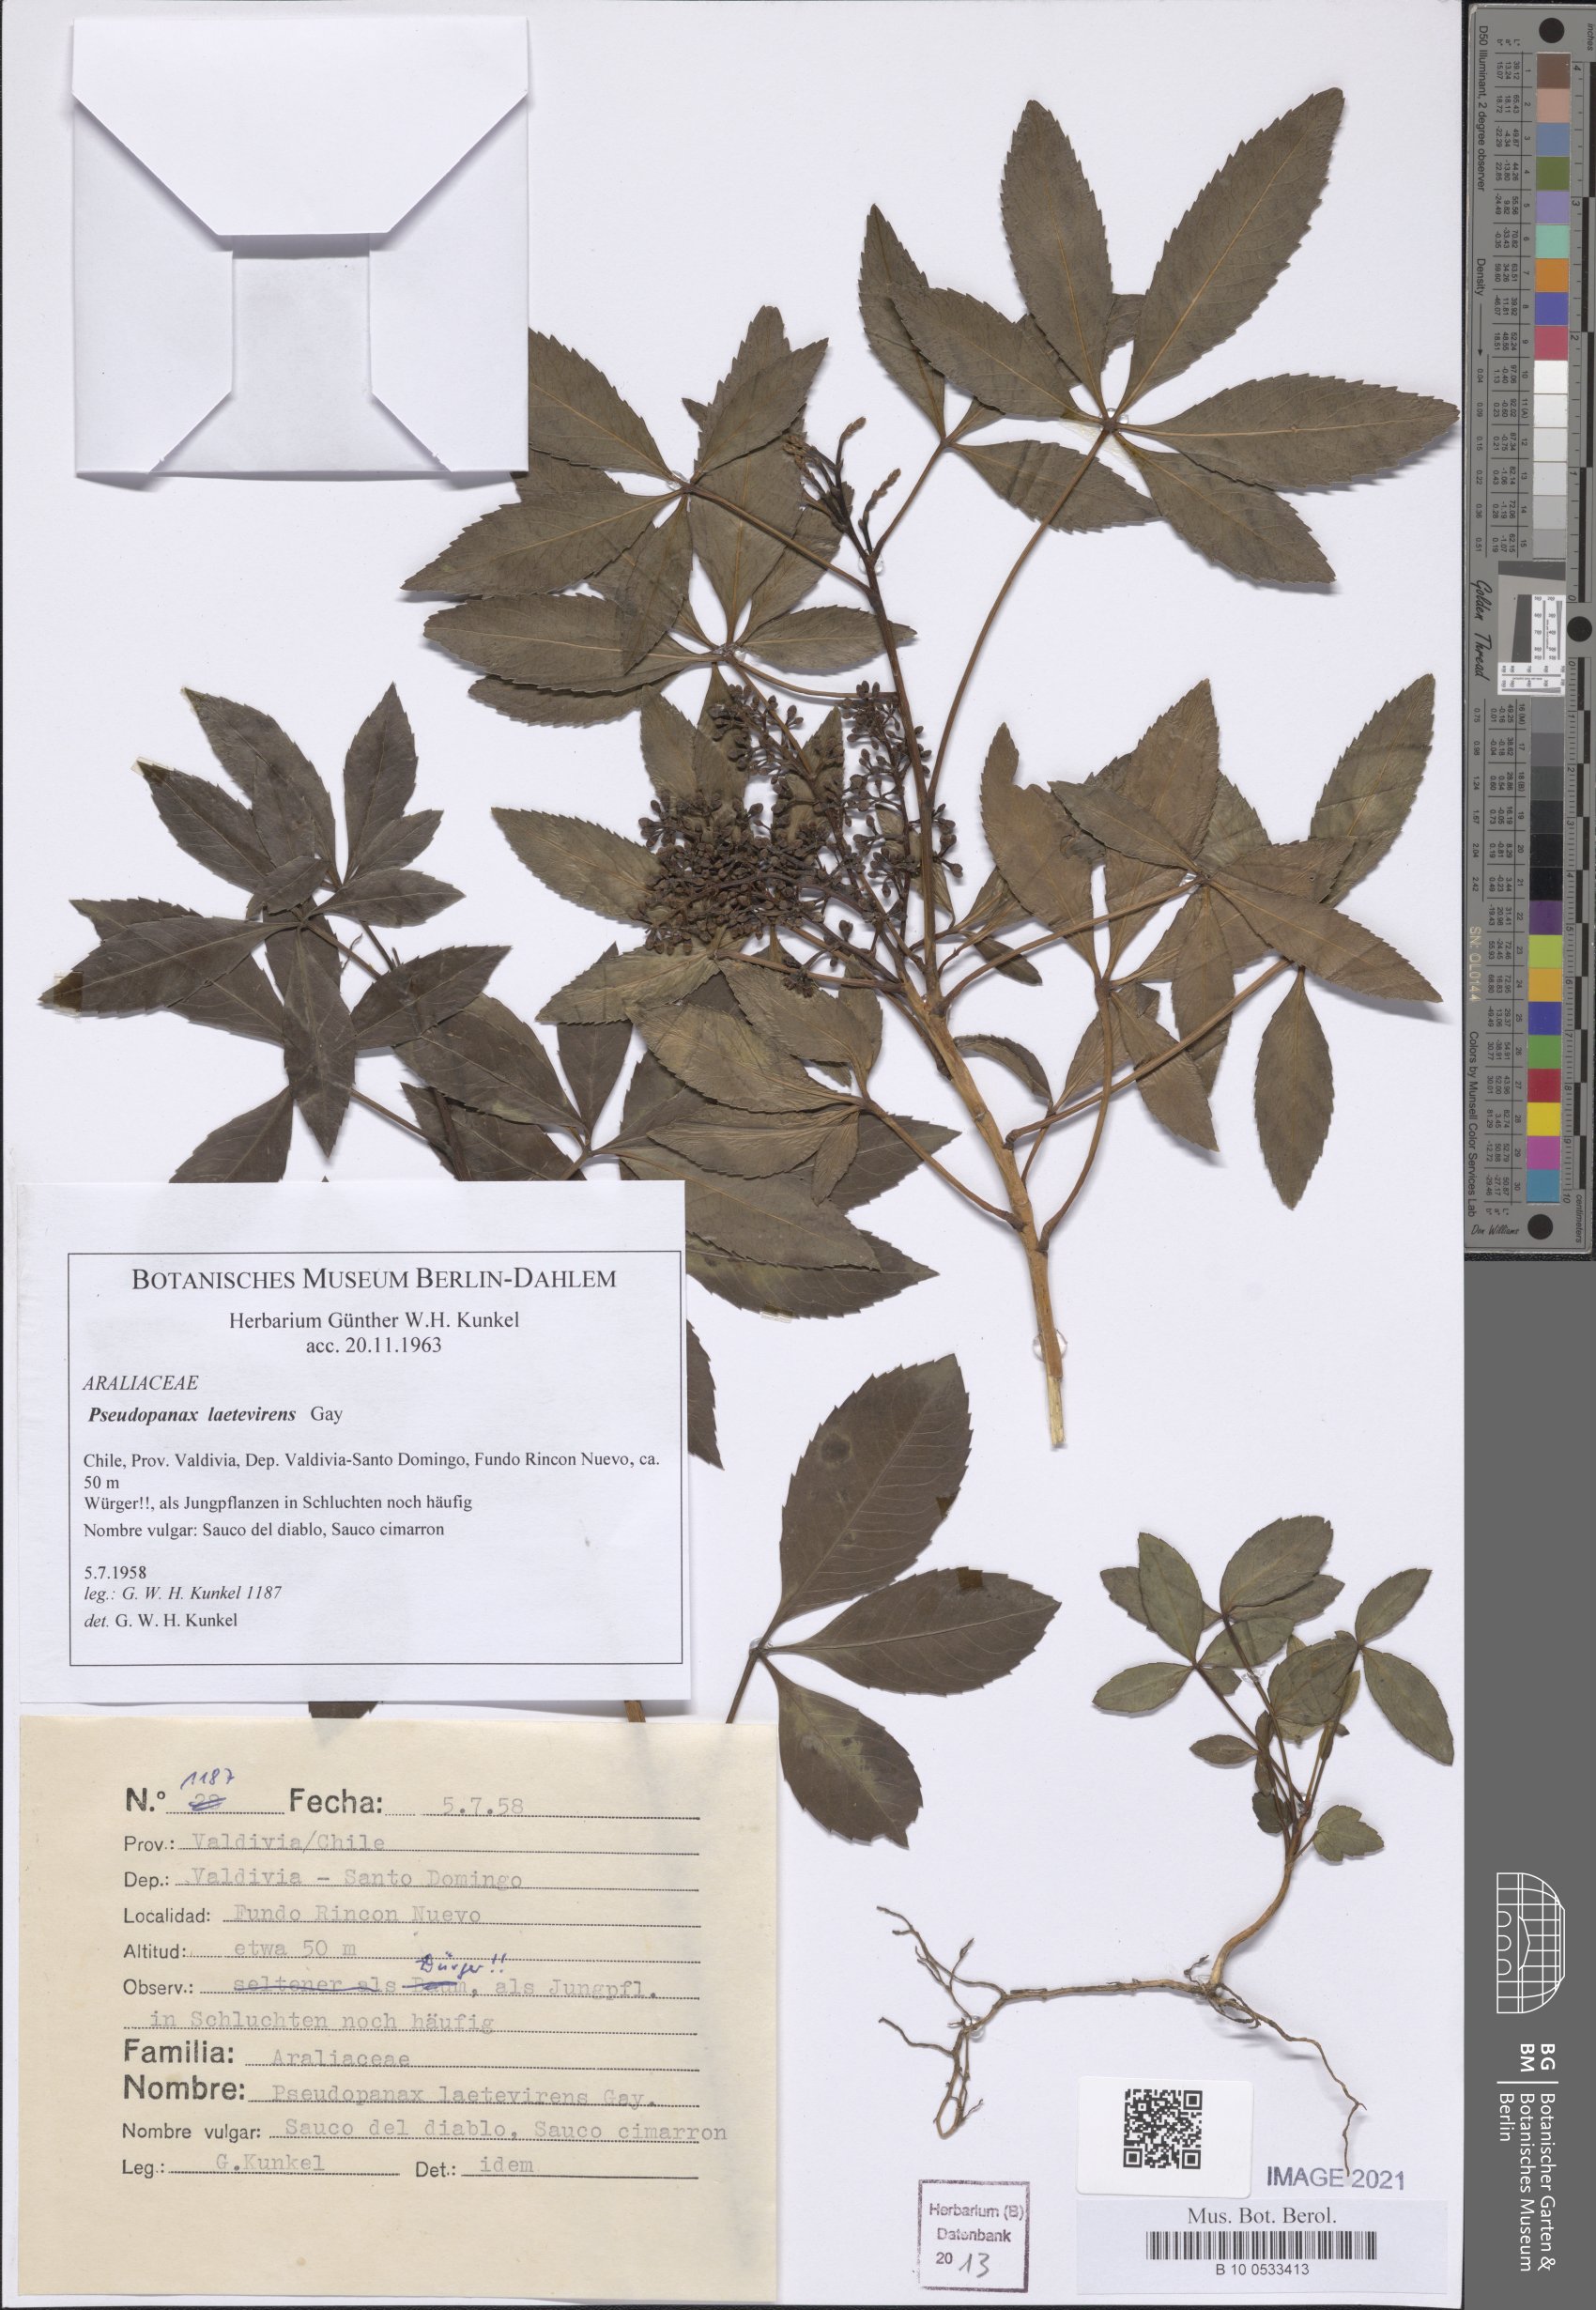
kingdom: Plantae
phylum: Tracheophyta
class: Magnoliopsida
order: Apiales
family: Araliaceae
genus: Raukaua
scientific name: Raukaua laetevirens
